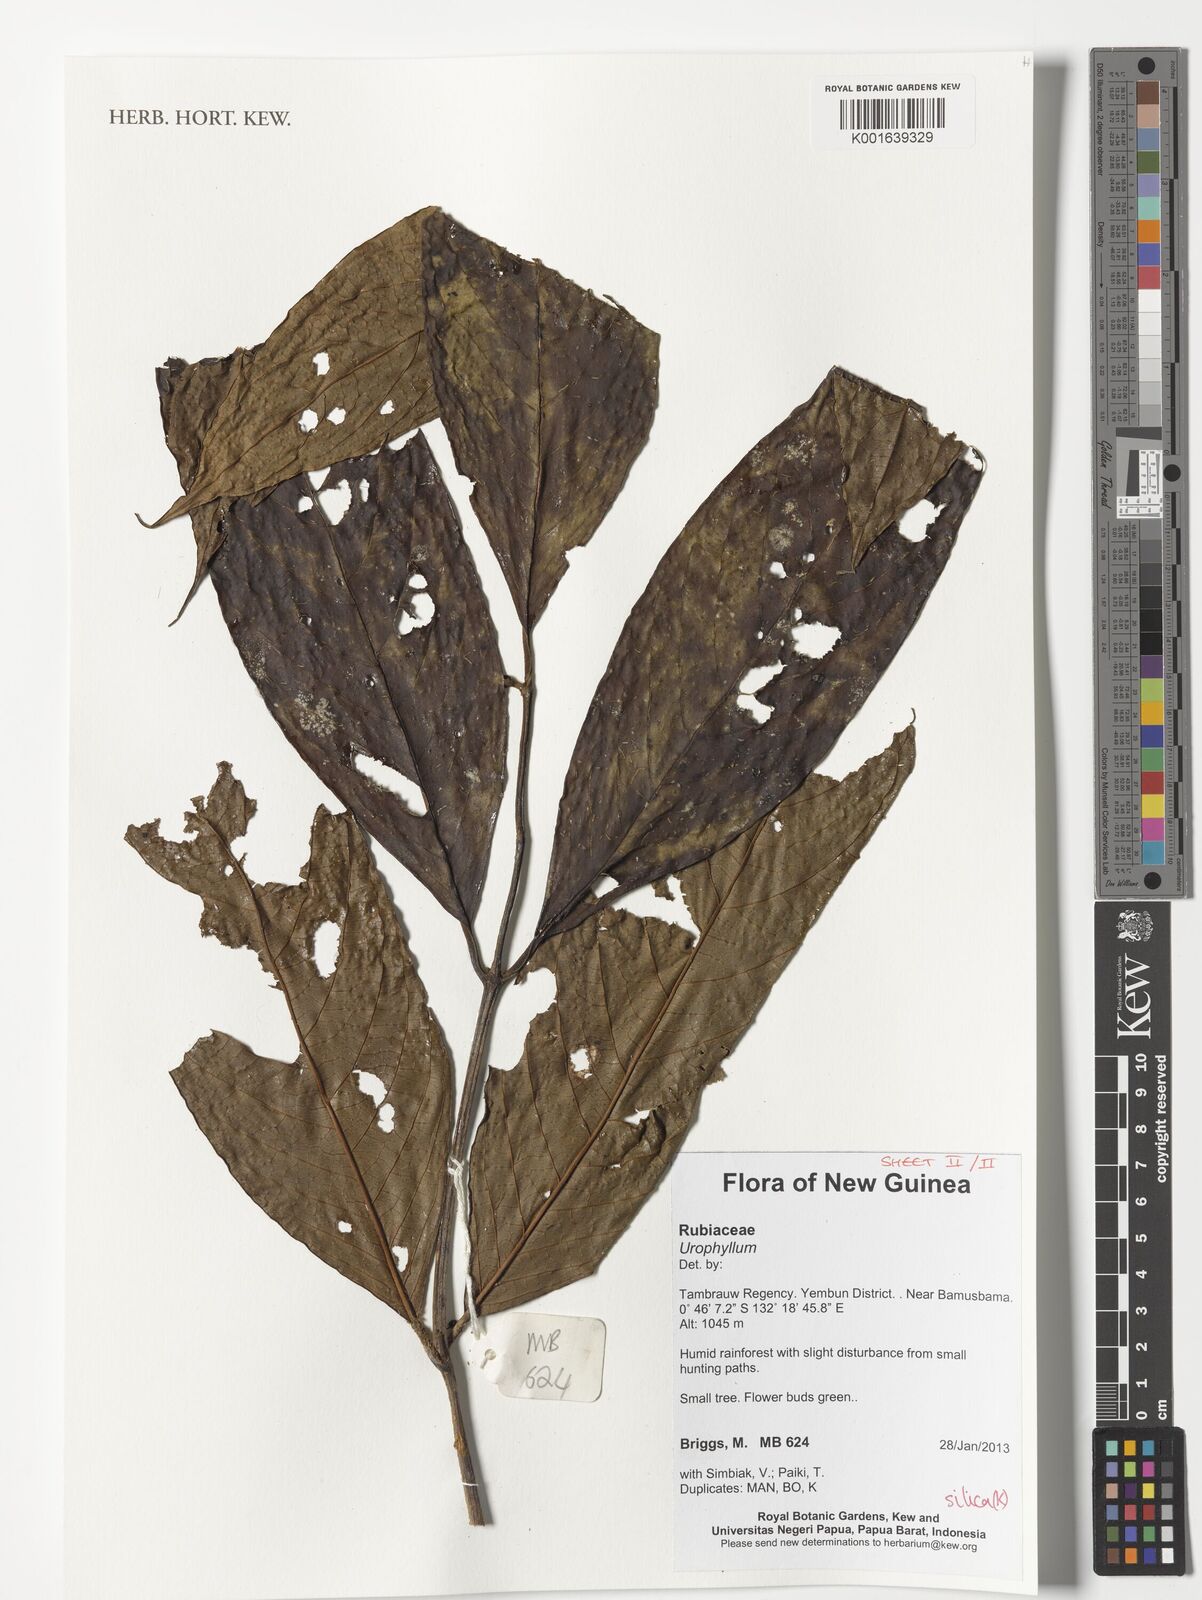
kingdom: Plantae
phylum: Tracheophyta
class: Magnoliopsida
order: Gentianales
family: Rubiaceae
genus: Urophyllum
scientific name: Urophyllum
